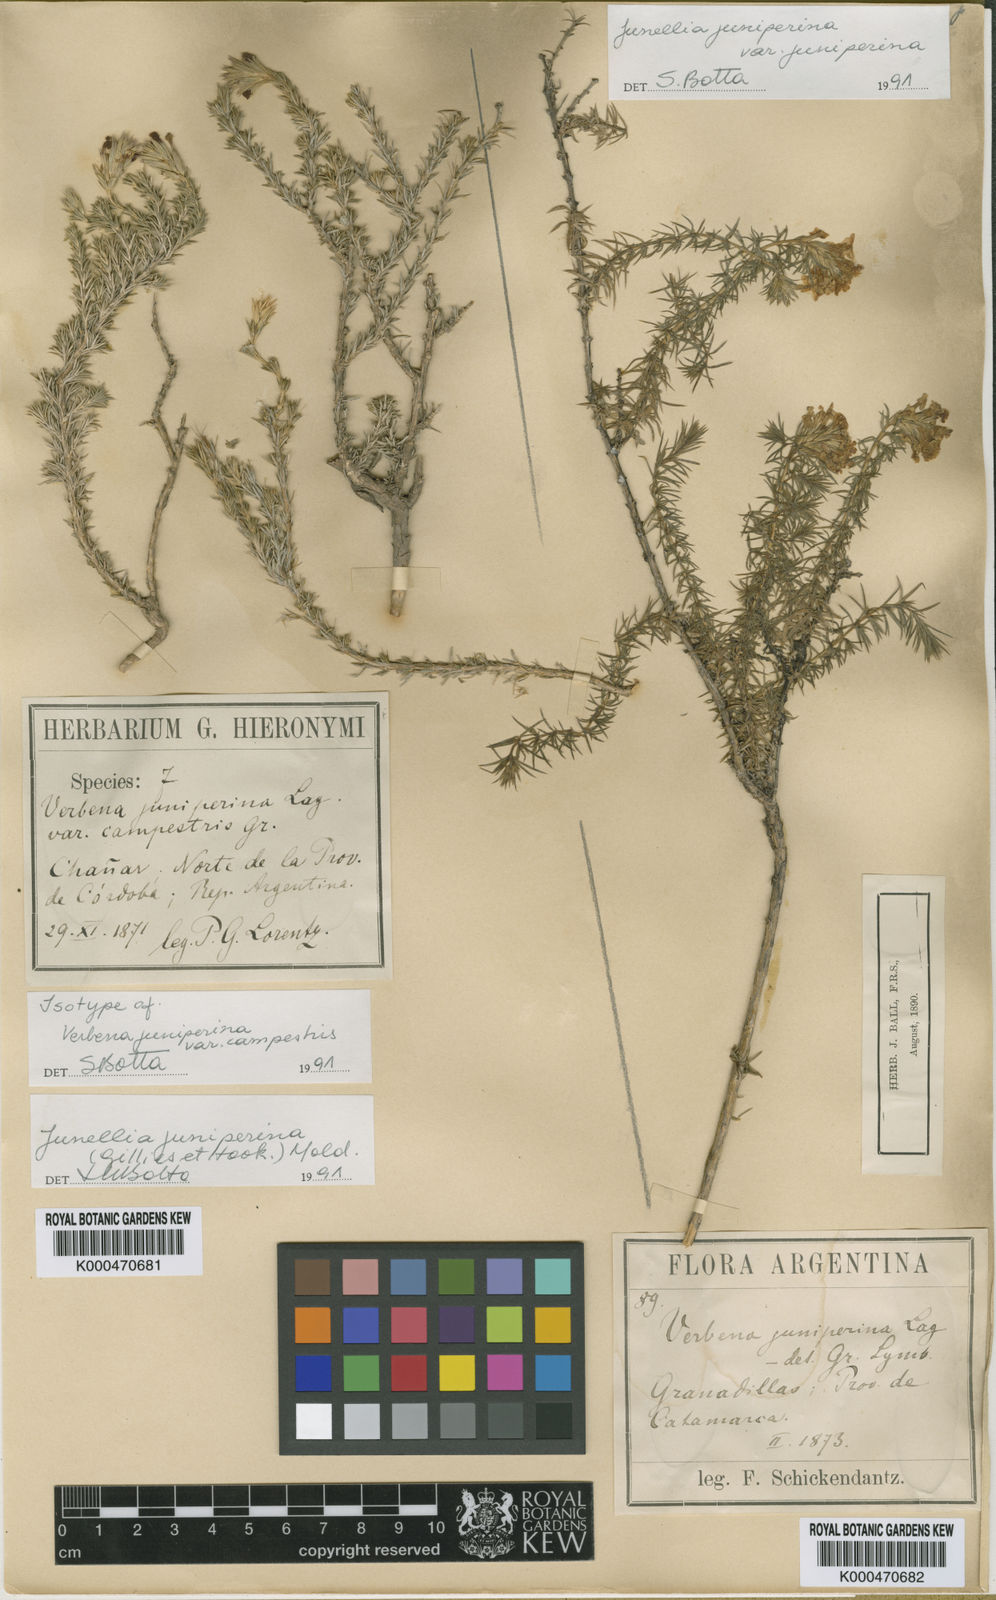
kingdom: Plantae
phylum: Tracheophyta
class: Magnoliopsida
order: Lamiales
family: Verbenaceae
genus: Junellia
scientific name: Junellia juniperina
